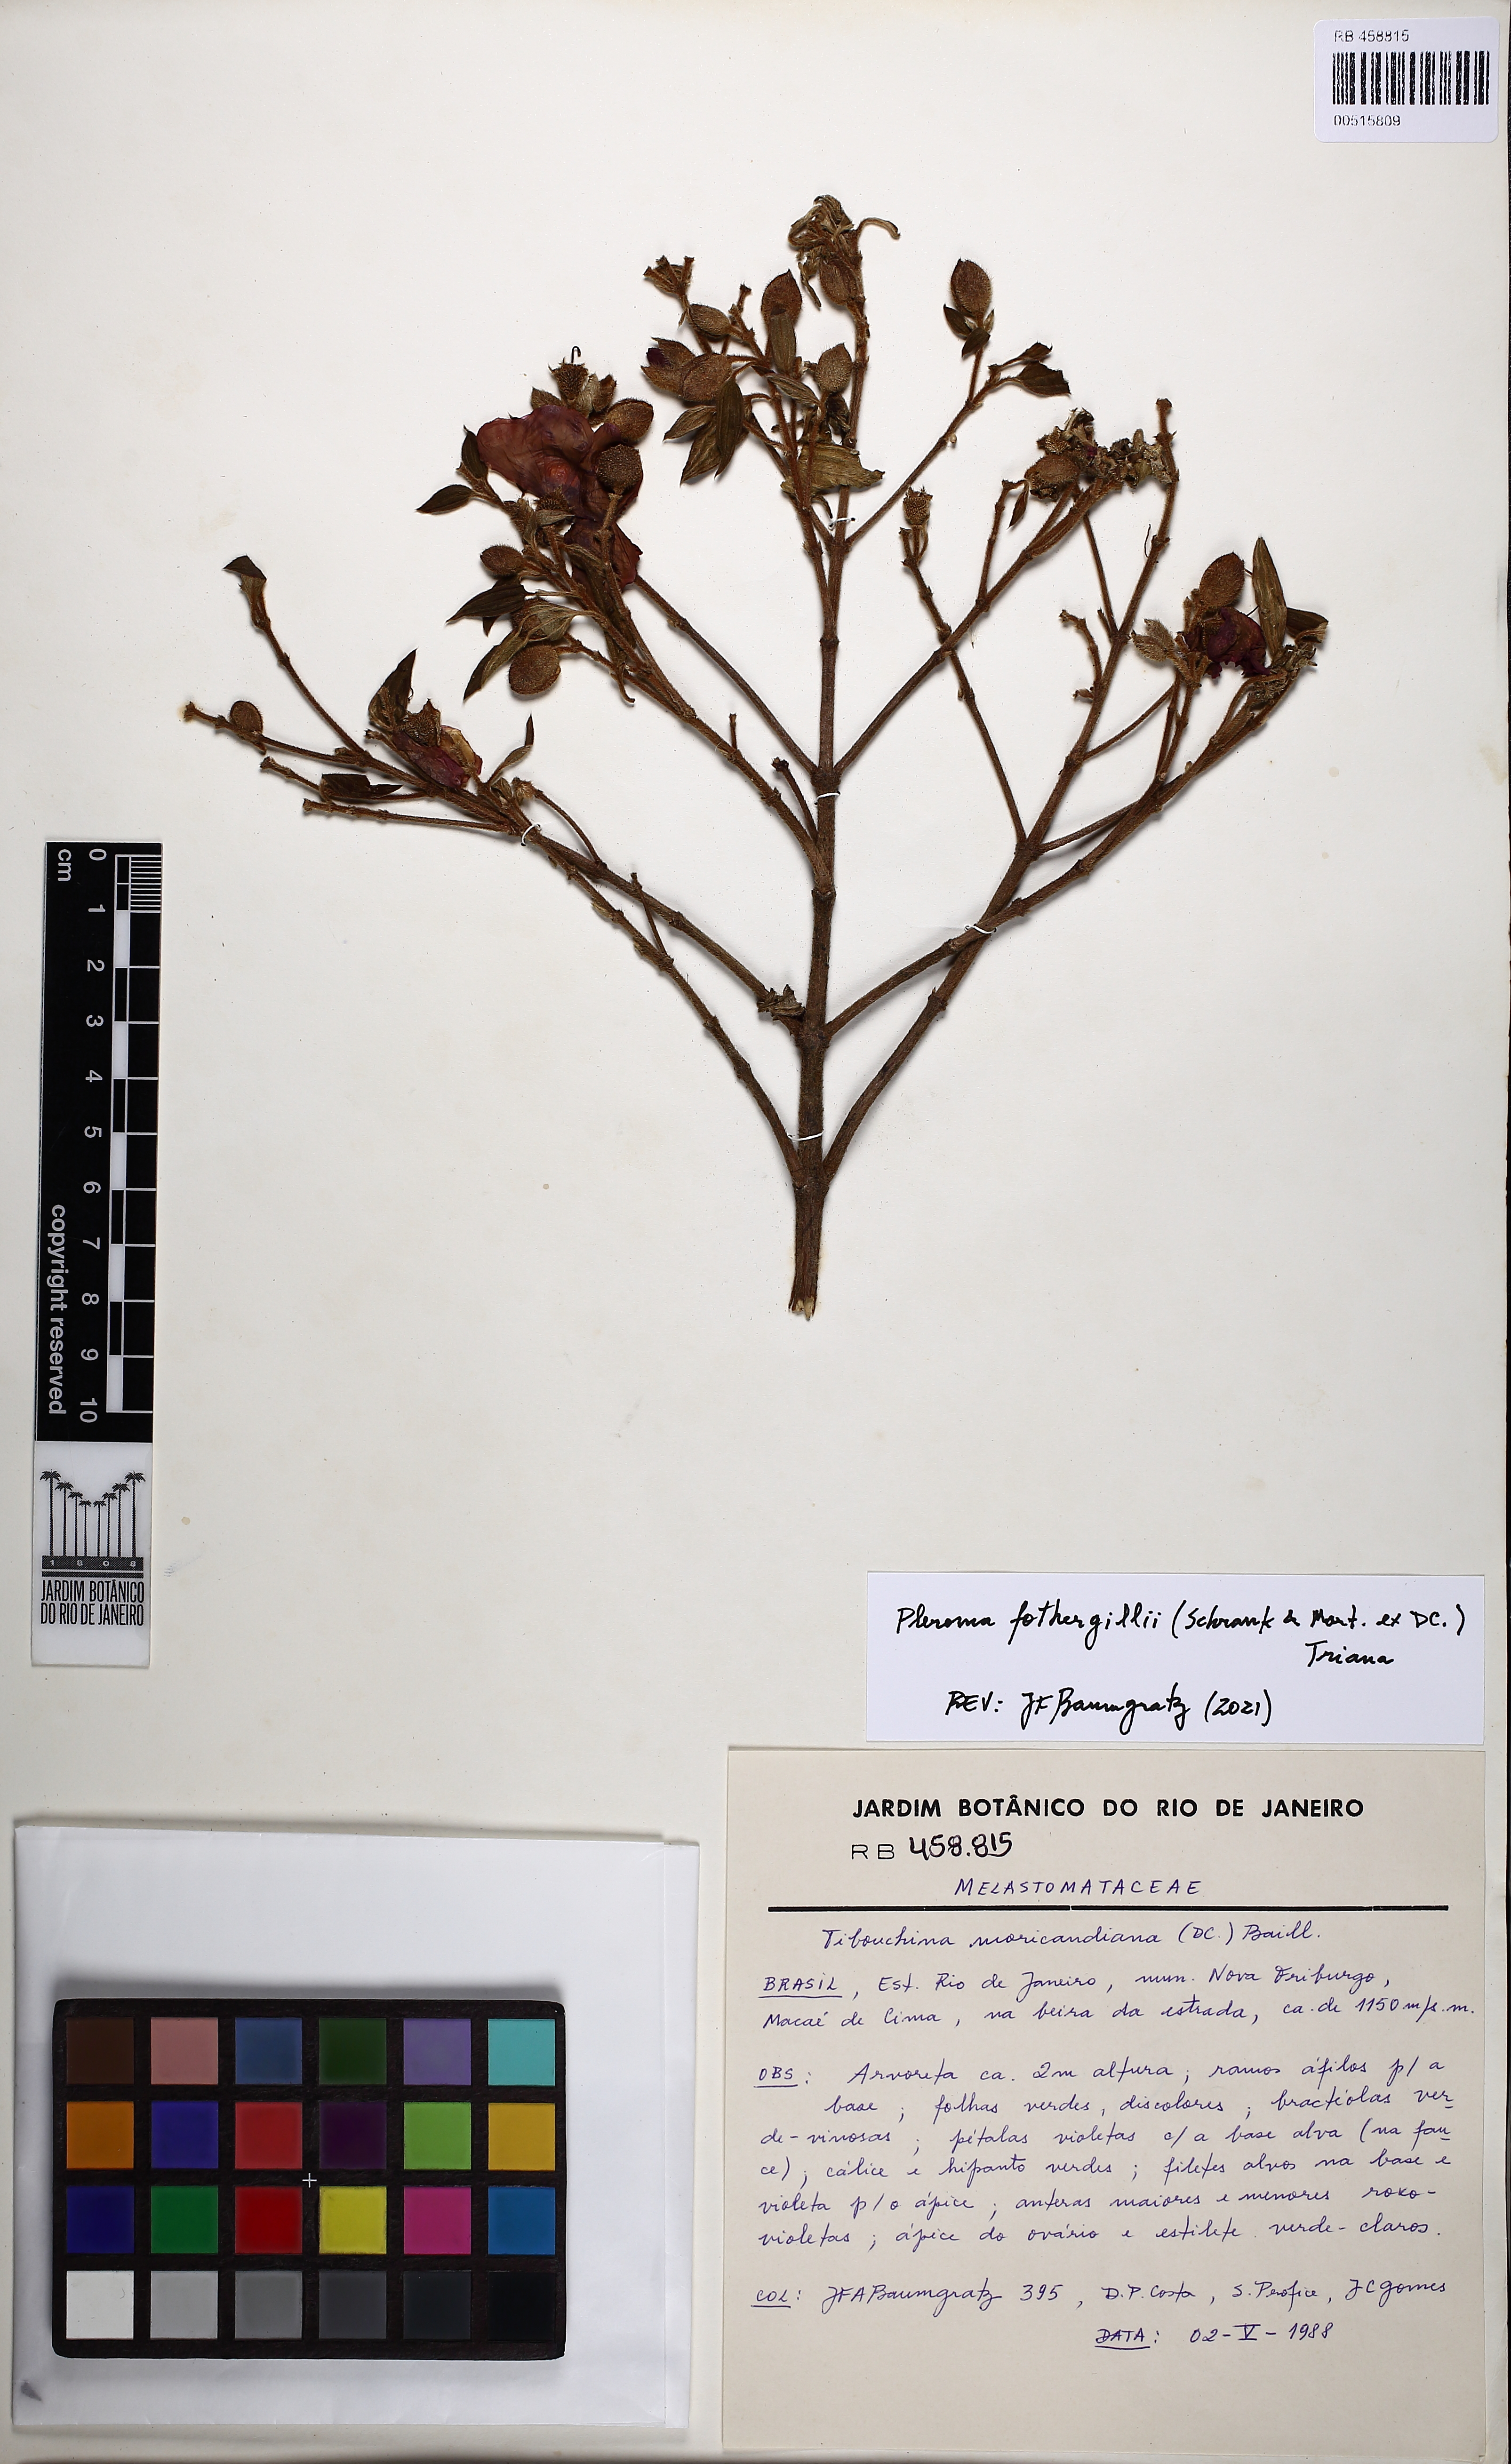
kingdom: Plantae
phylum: Tracheophyta
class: Magnoliopsida
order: Myrtales
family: Melastomataceae
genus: Pleroma
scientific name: Pleroma fothergillii
